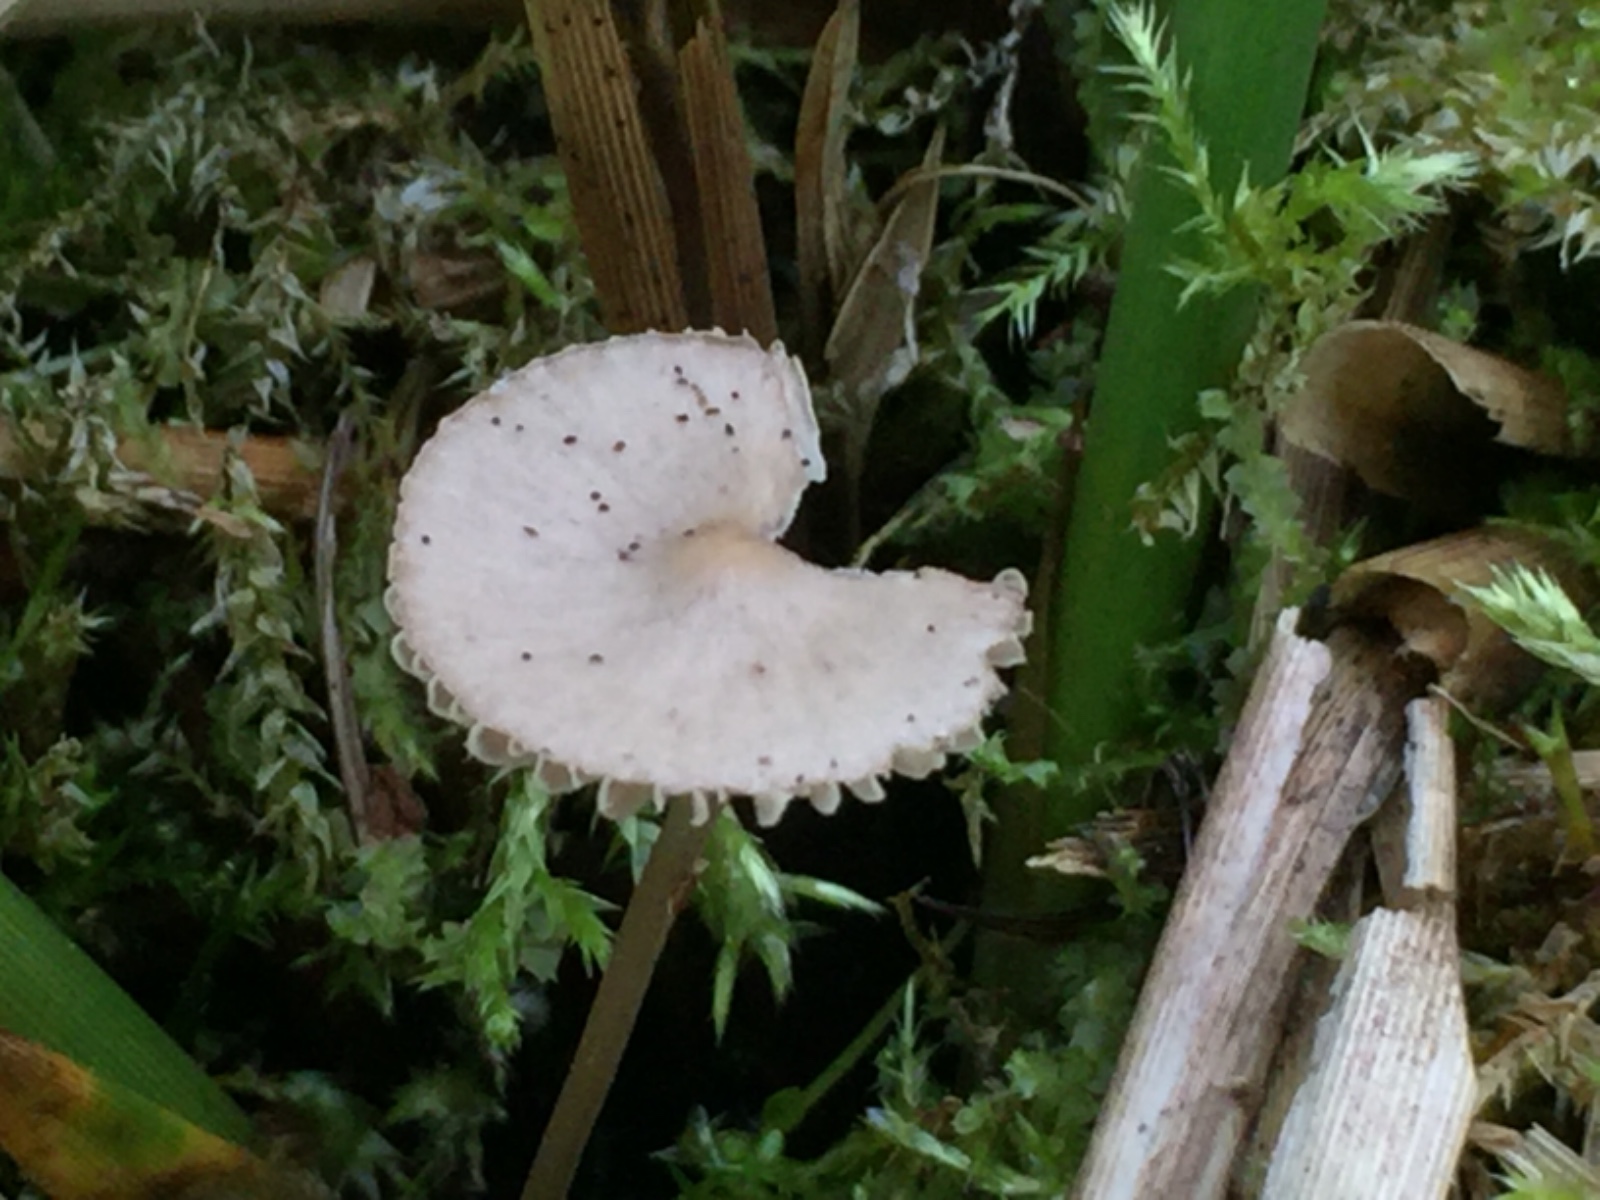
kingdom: Fungi
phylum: Basidiomycota
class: Agaricomycetes
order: Agaricales
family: Mycenaceae
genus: Mycena
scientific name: Mycena
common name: huesvamp
